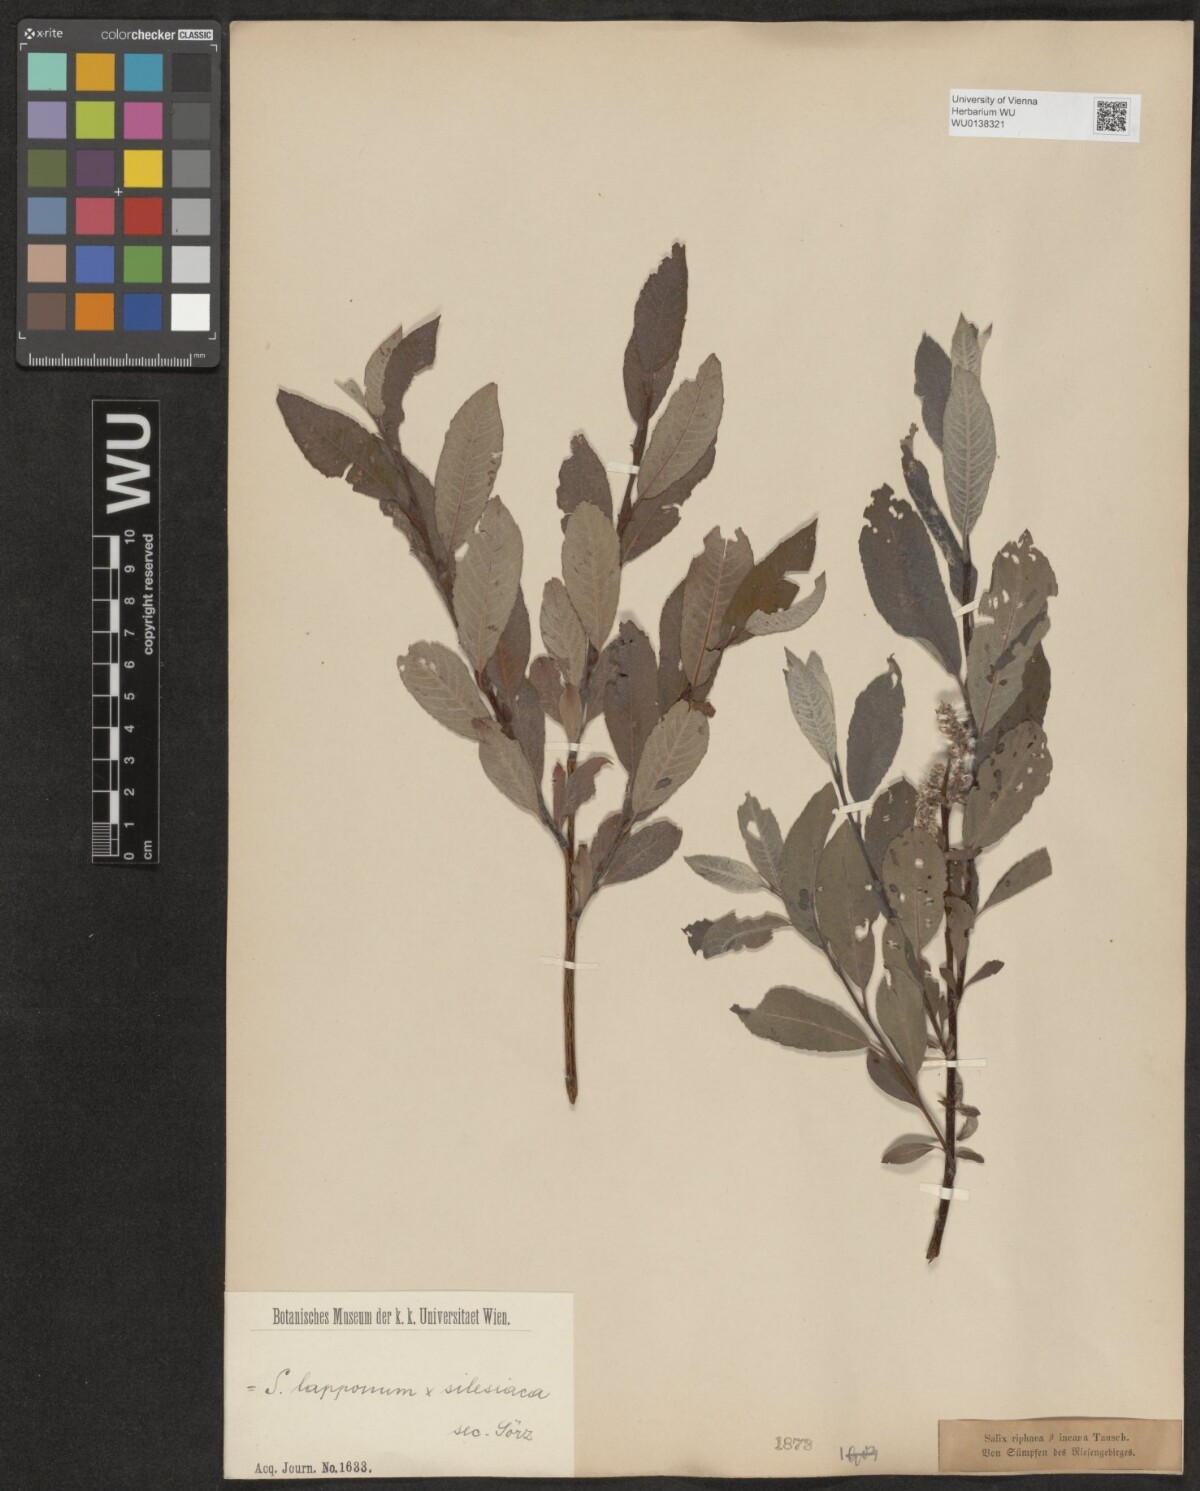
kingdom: Plantae
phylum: Tracheophyta
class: Magnoliopsida
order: Malpighiales
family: Salicaceae
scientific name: Salicaceae
